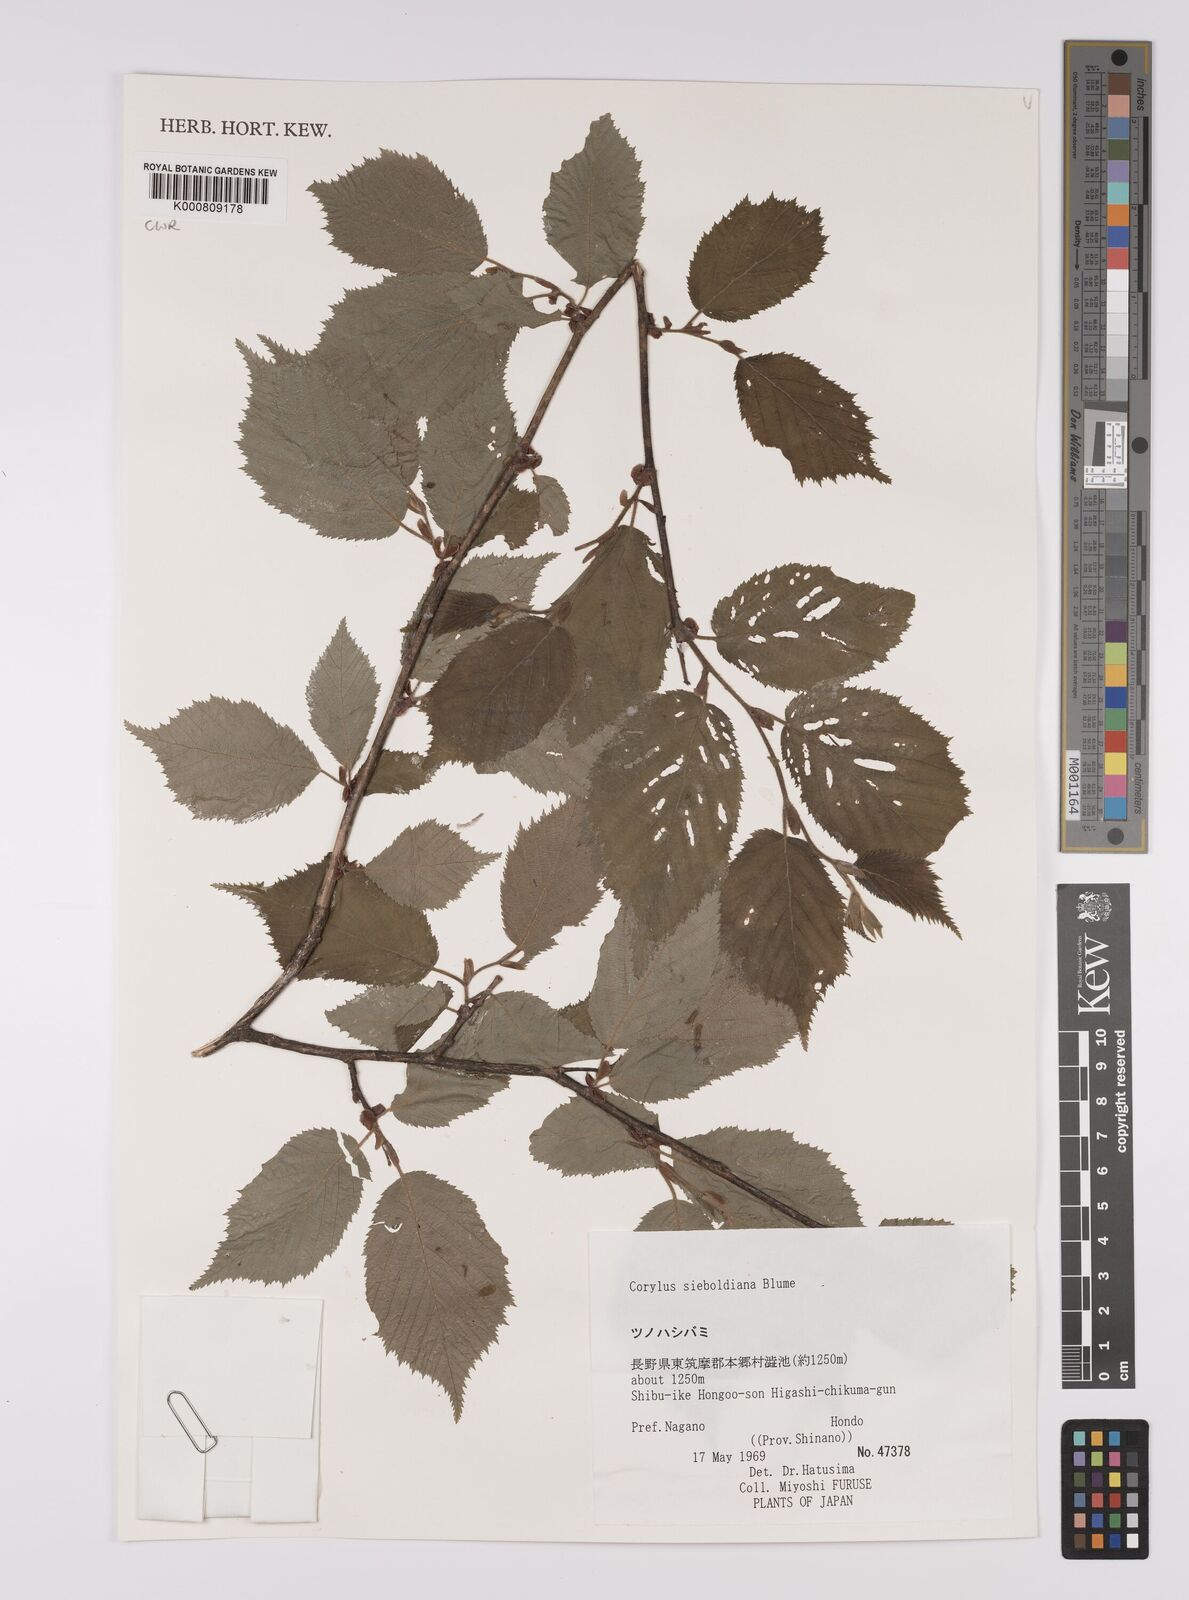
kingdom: Plantae
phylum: Tracheophyta
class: Magnoliopsida
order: Fagales
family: Betulaceae
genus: Corylus
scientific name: Corylus
